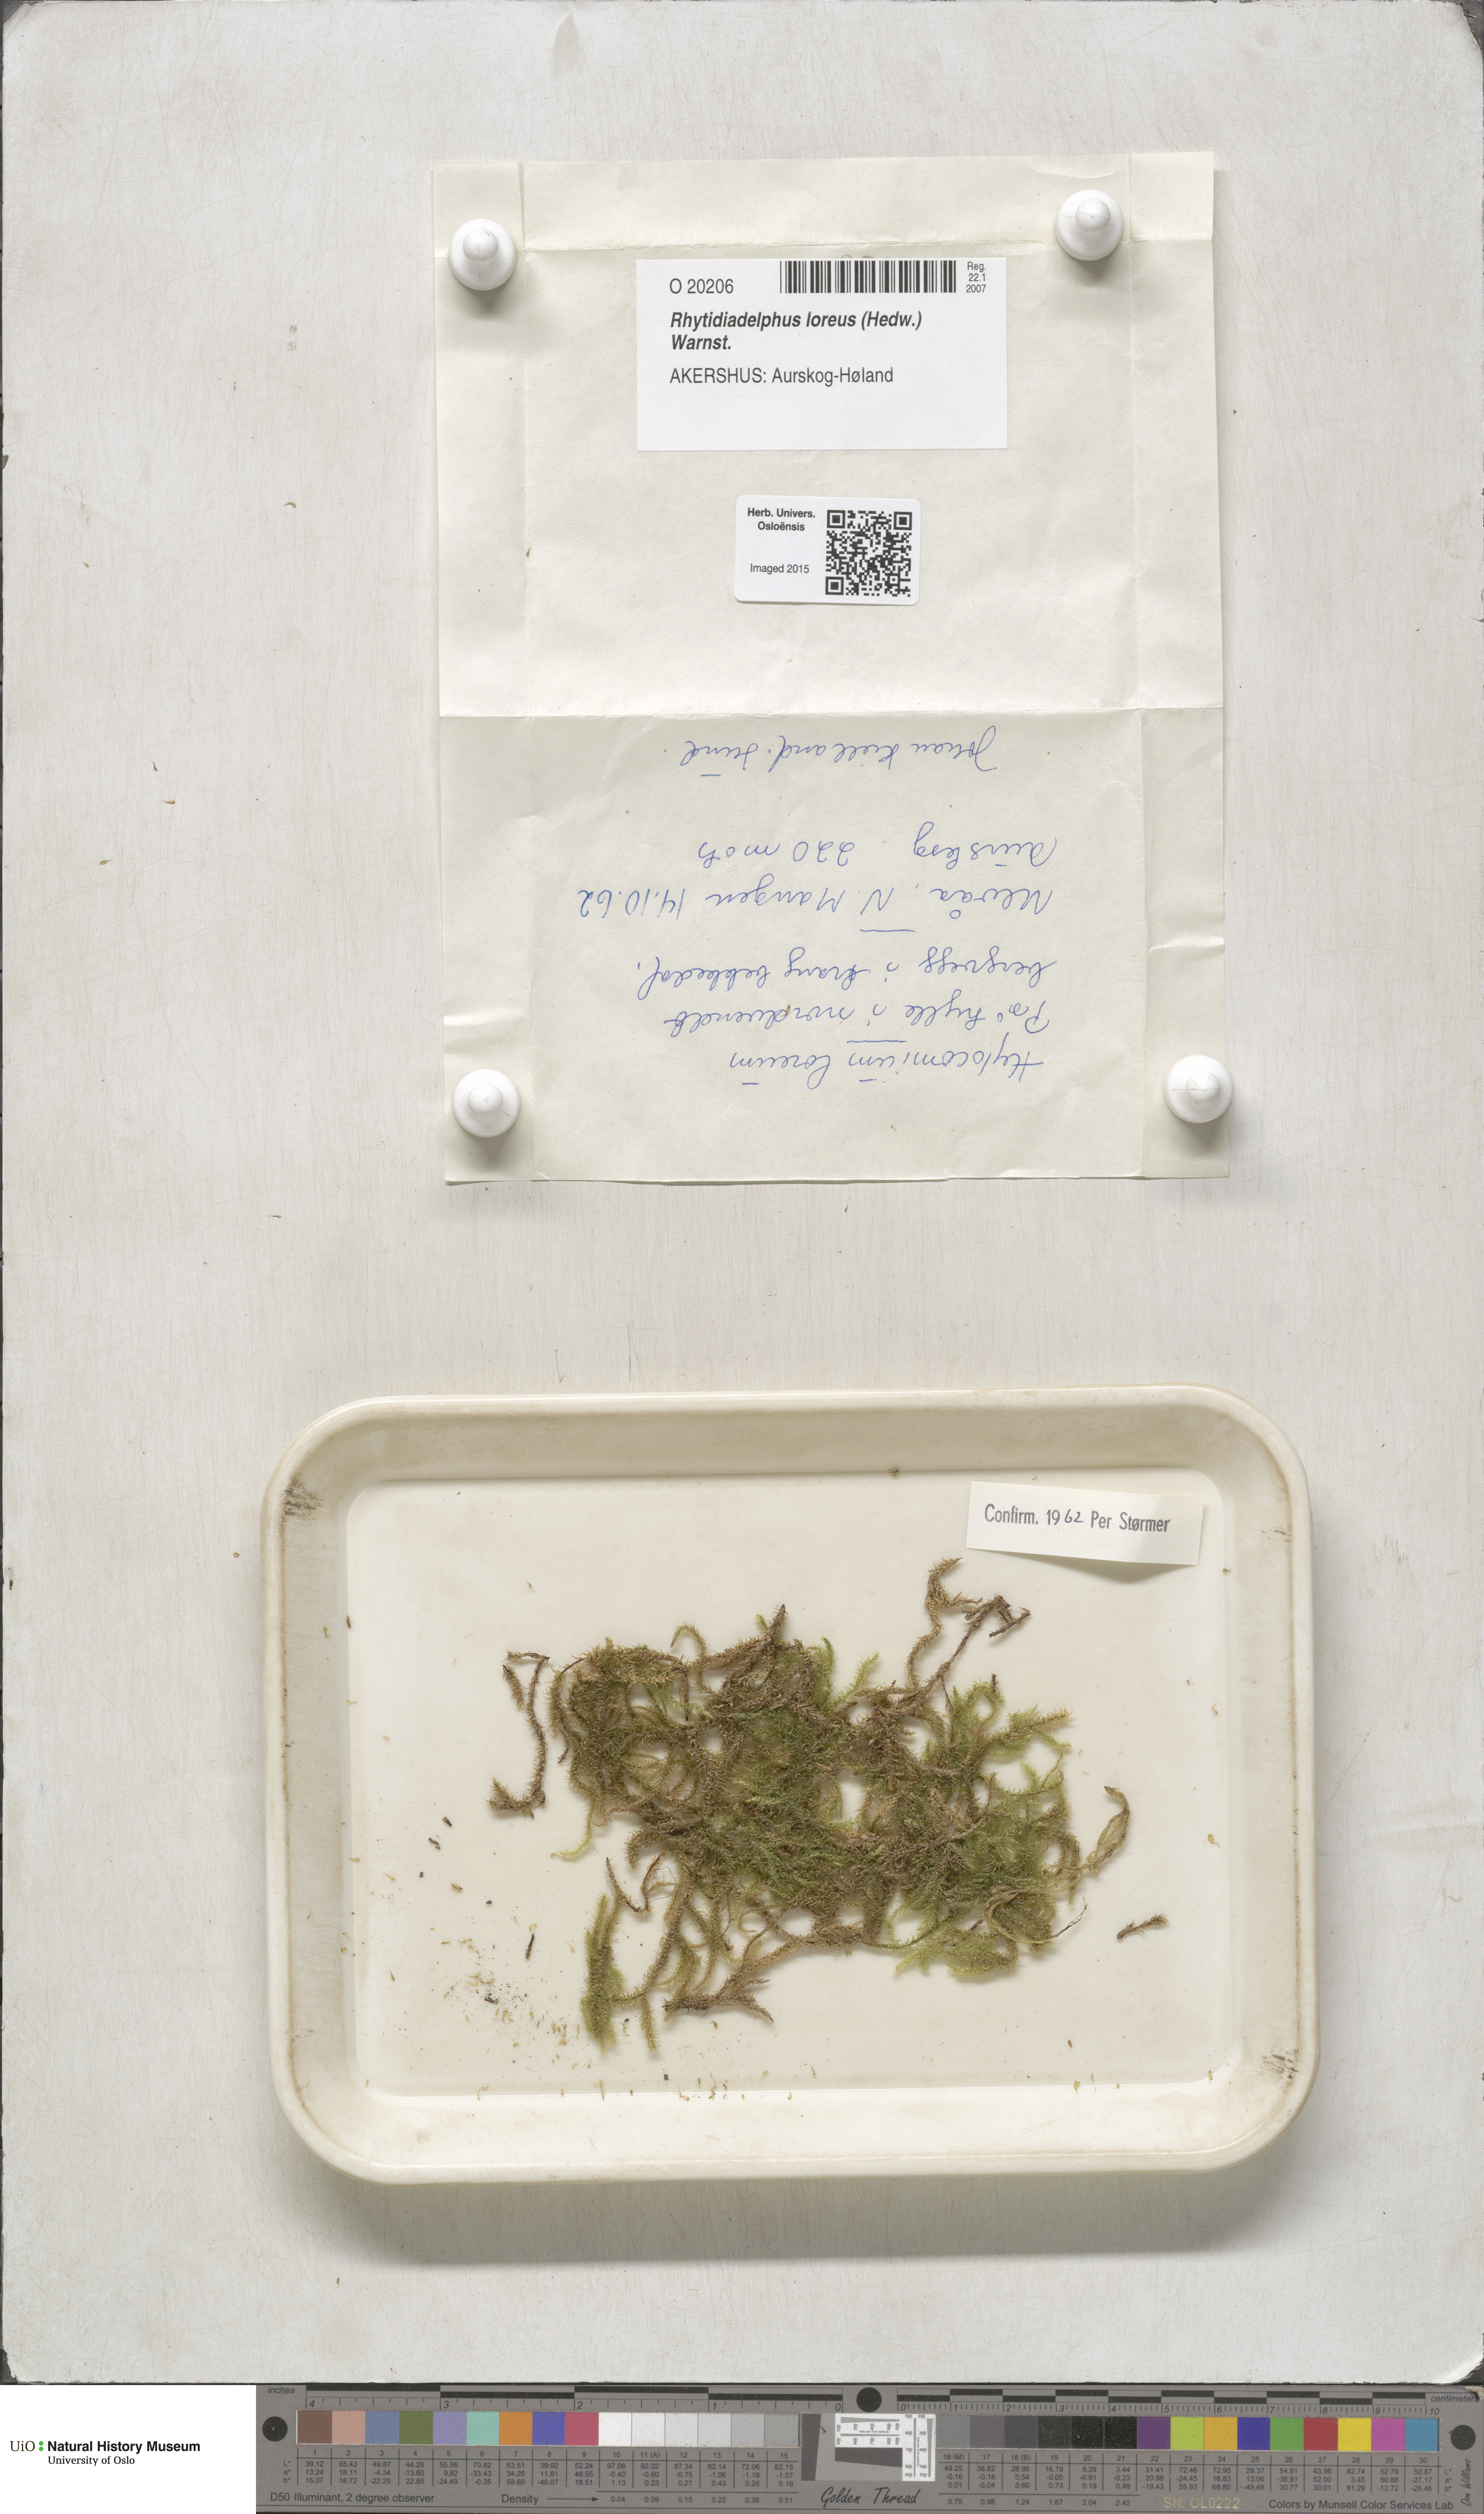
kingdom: Plantae
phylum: Bryophyta
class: Bryopsida
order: Hypnales
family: Hylocomiaceae
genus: Rhytidiadelphus
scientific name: Rhytidiadelphus loreus
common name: Lanky moss
